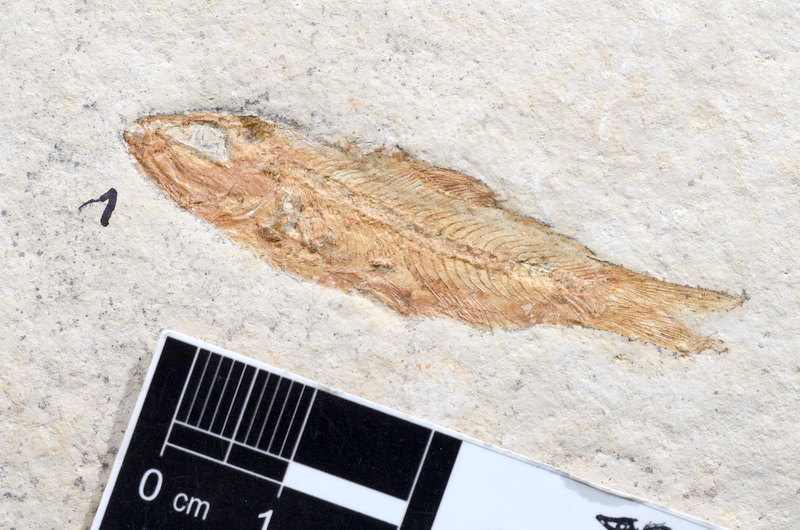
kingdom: Animalia
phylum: Chordata
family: Ascalaboidae
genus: Ascalabos
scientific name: Ascalabos voithii
